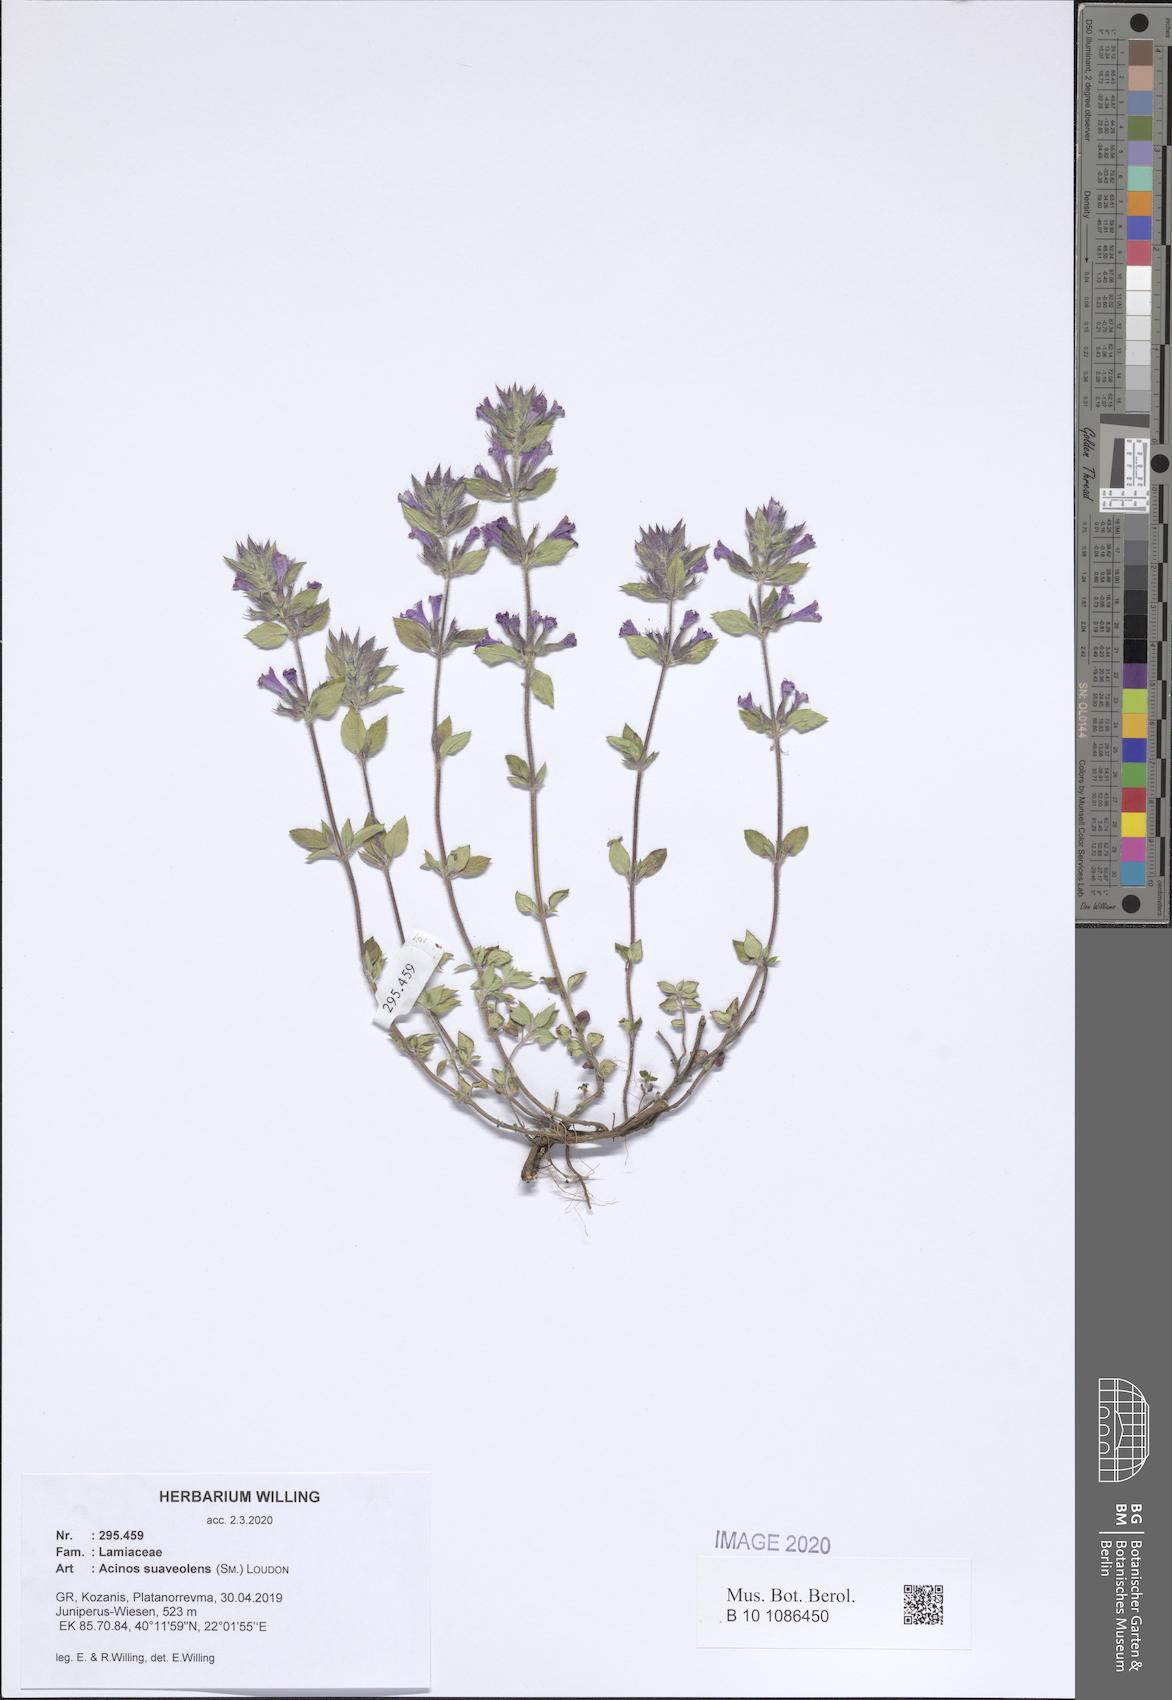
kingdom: Plantae
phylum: Tracheophyta
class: Magnoliopsida
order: Lamiales
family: Lamiaceae
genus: Clinopodium
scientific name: Clinopodium suaveolens
